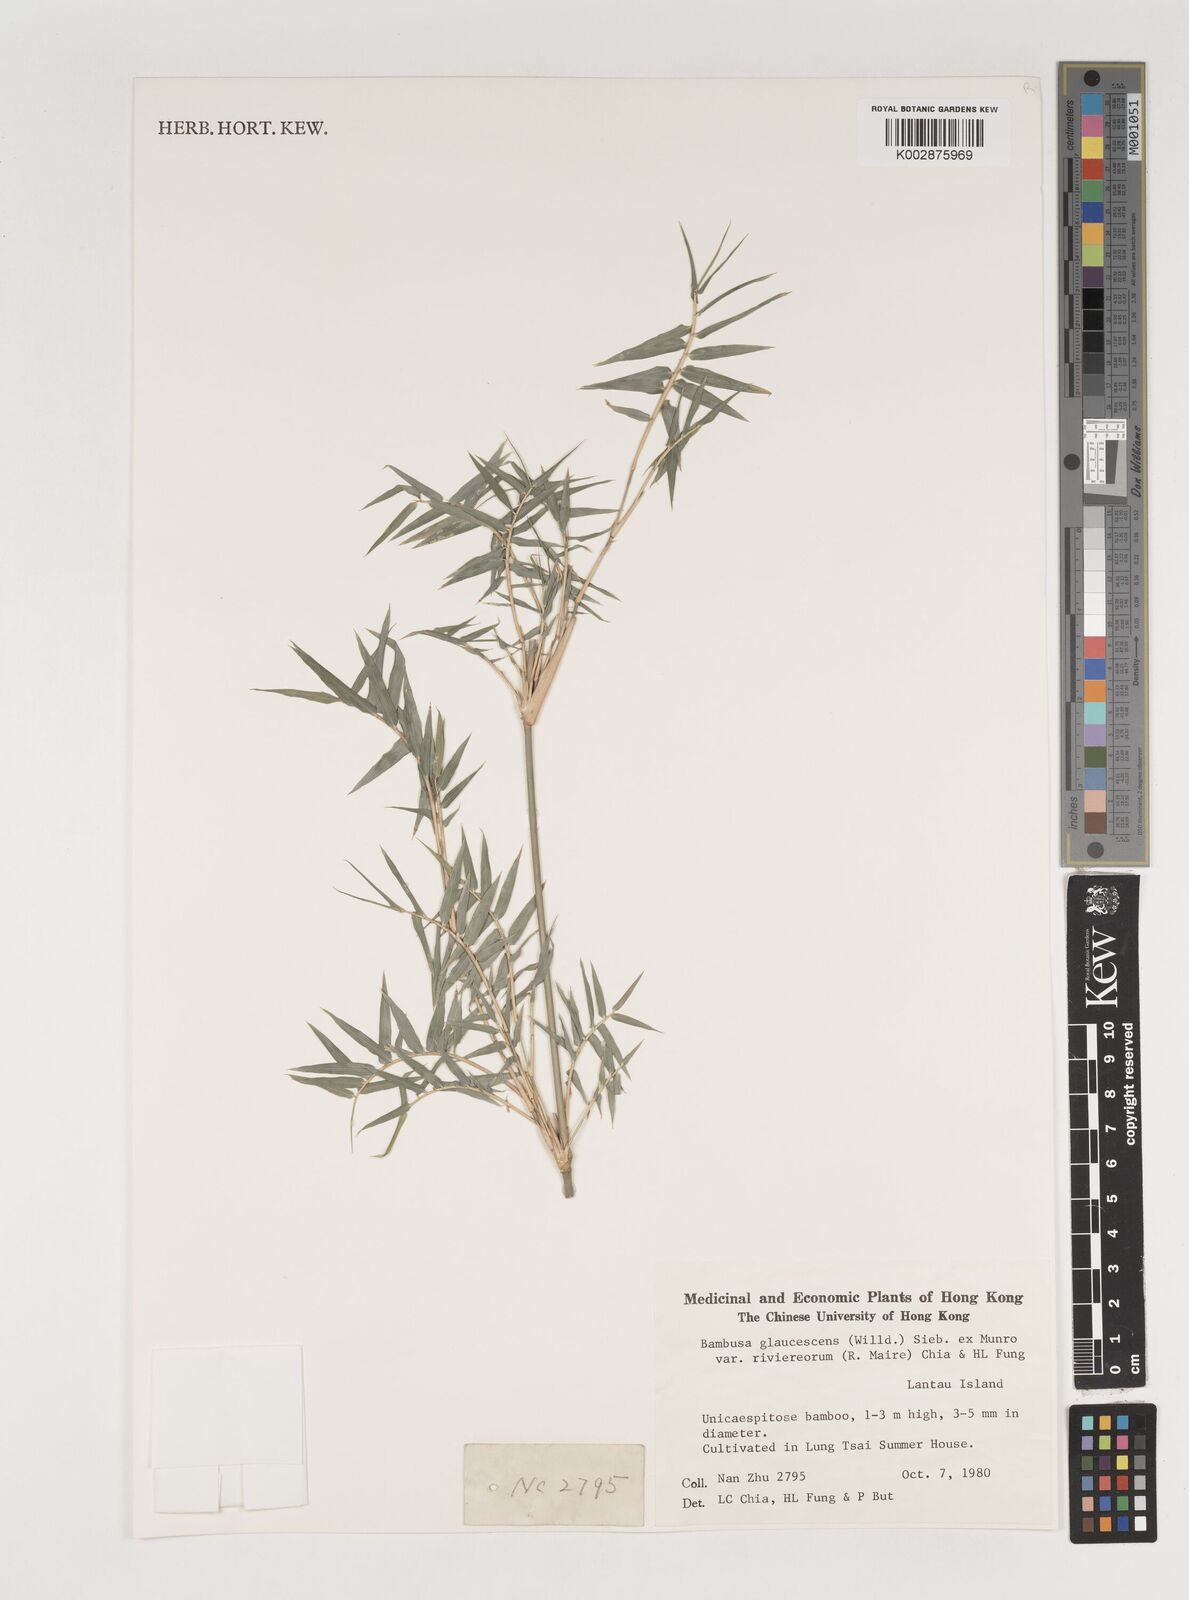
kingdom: Plantae
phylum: Tracheophyta
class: Liliopsida
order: Poales
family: Poaceae
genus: Bambusa
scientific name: Bambusa multiplex
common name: Hedge bamboo
